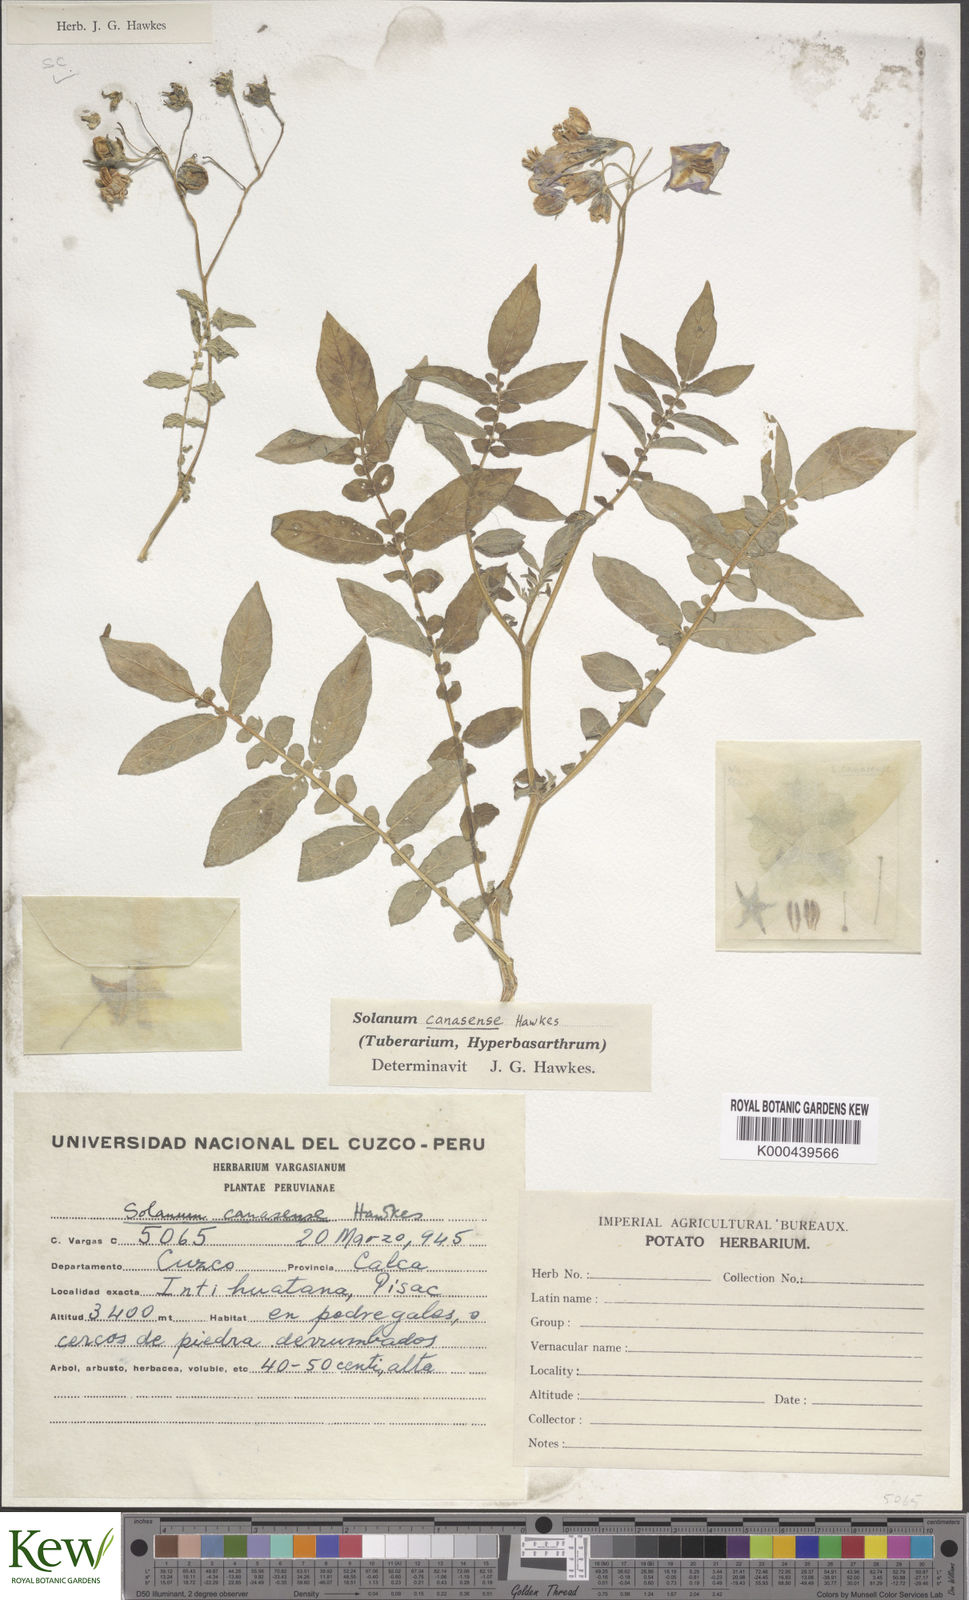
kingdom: Plantae
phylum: Tracheophyta
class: Magnoliopsida
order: Solanales
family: Solanaceae
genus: Solanum
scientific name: Solanum candolleanum
